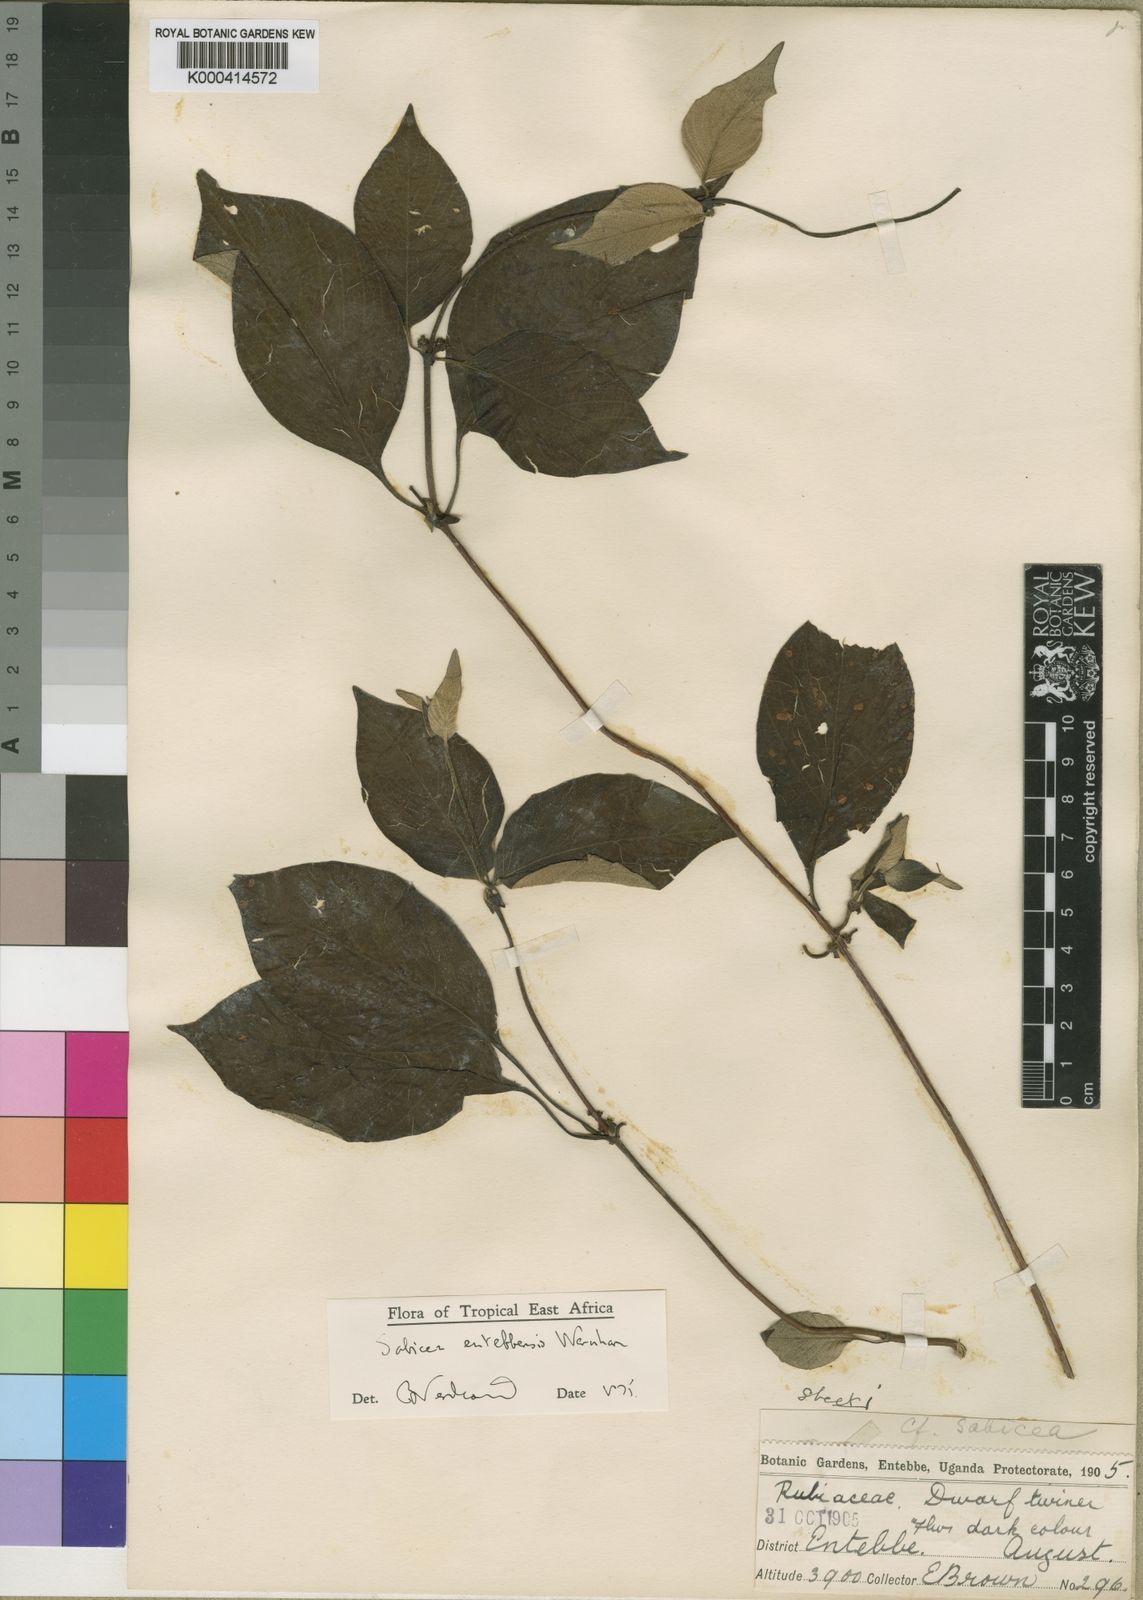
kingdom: Plantae
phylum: Tracheophyta
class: Magnoliopsida
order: Gentianales
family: Rubiaceae
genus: Sabicea
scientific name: Sabicea entebbensis
